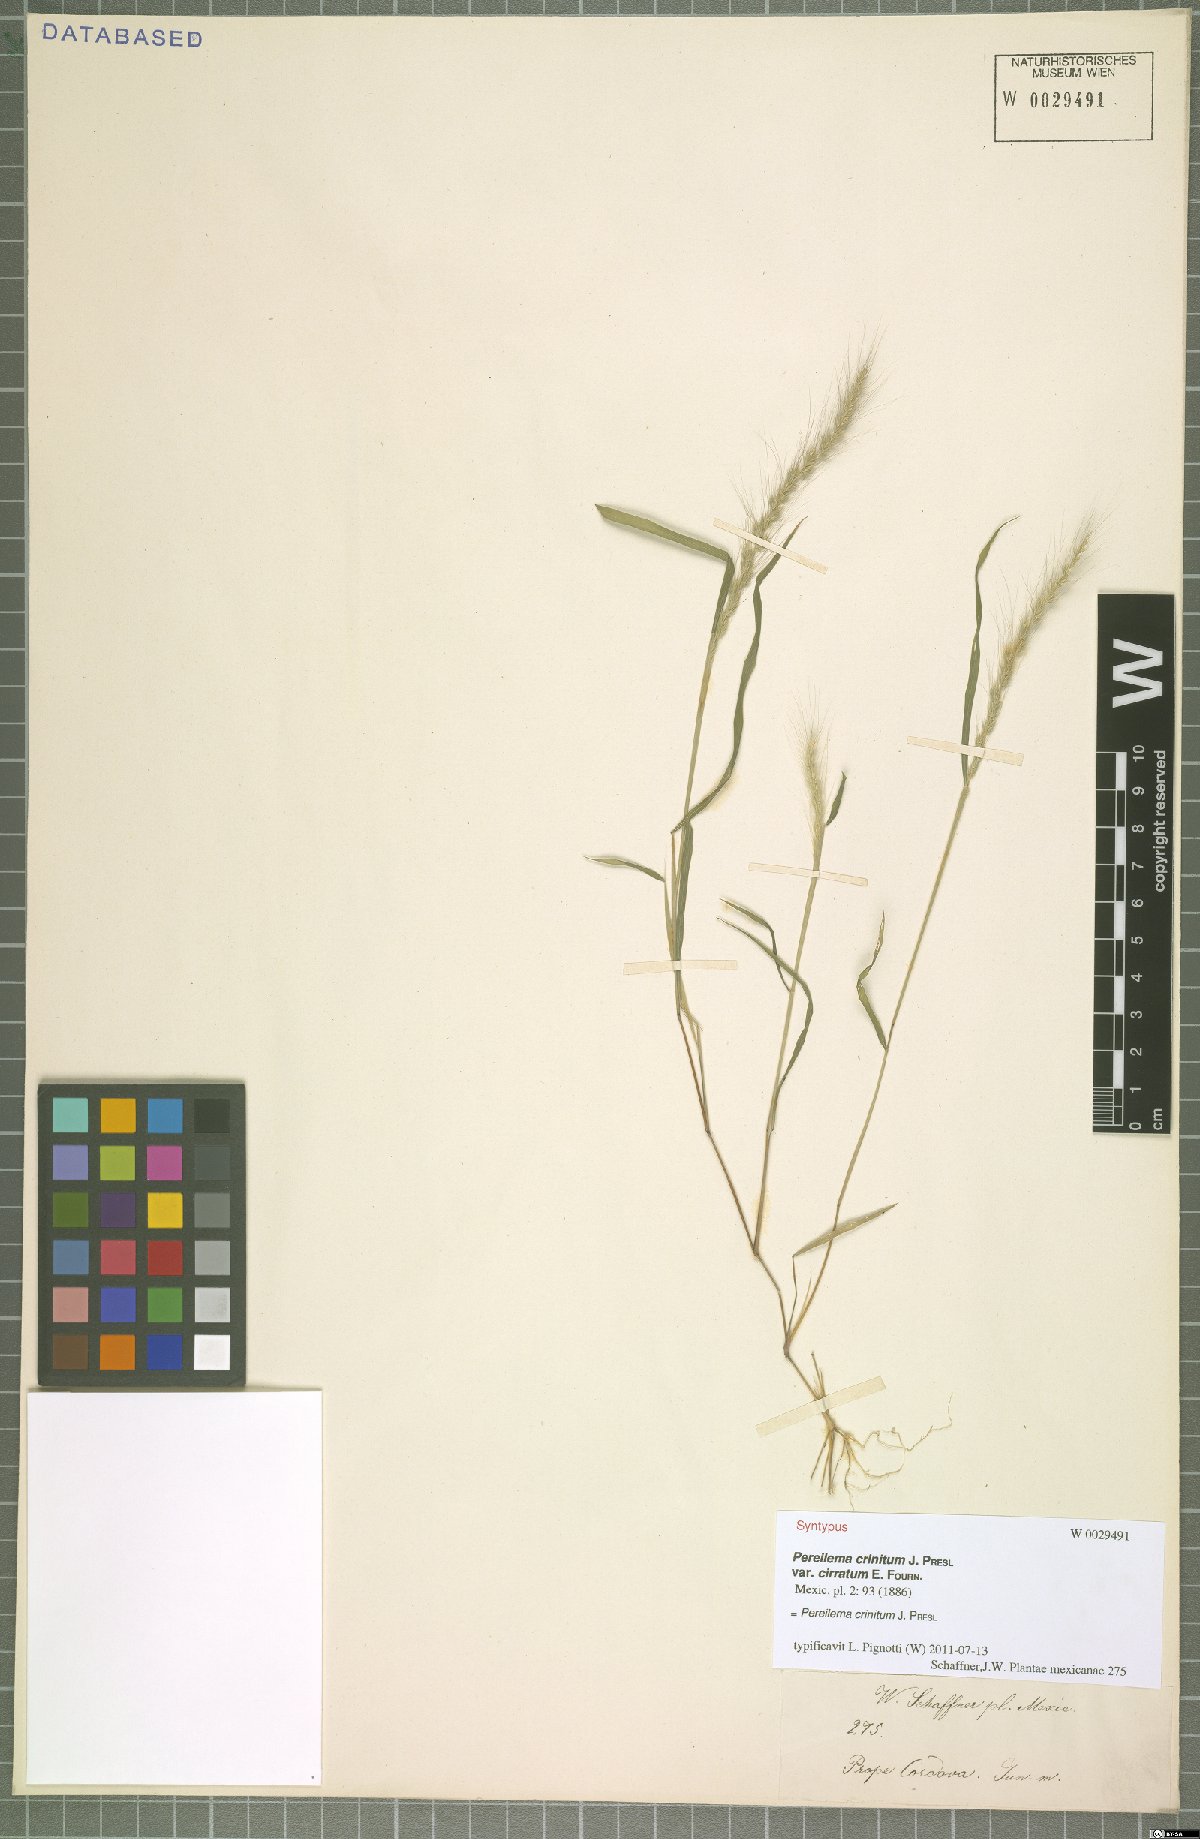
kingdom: Plantae
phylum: Tracheophyta
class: Liliopsida
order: Poales
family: Poaceae
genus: Muhlenbergia
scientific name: Muhlenbergia pereilema
